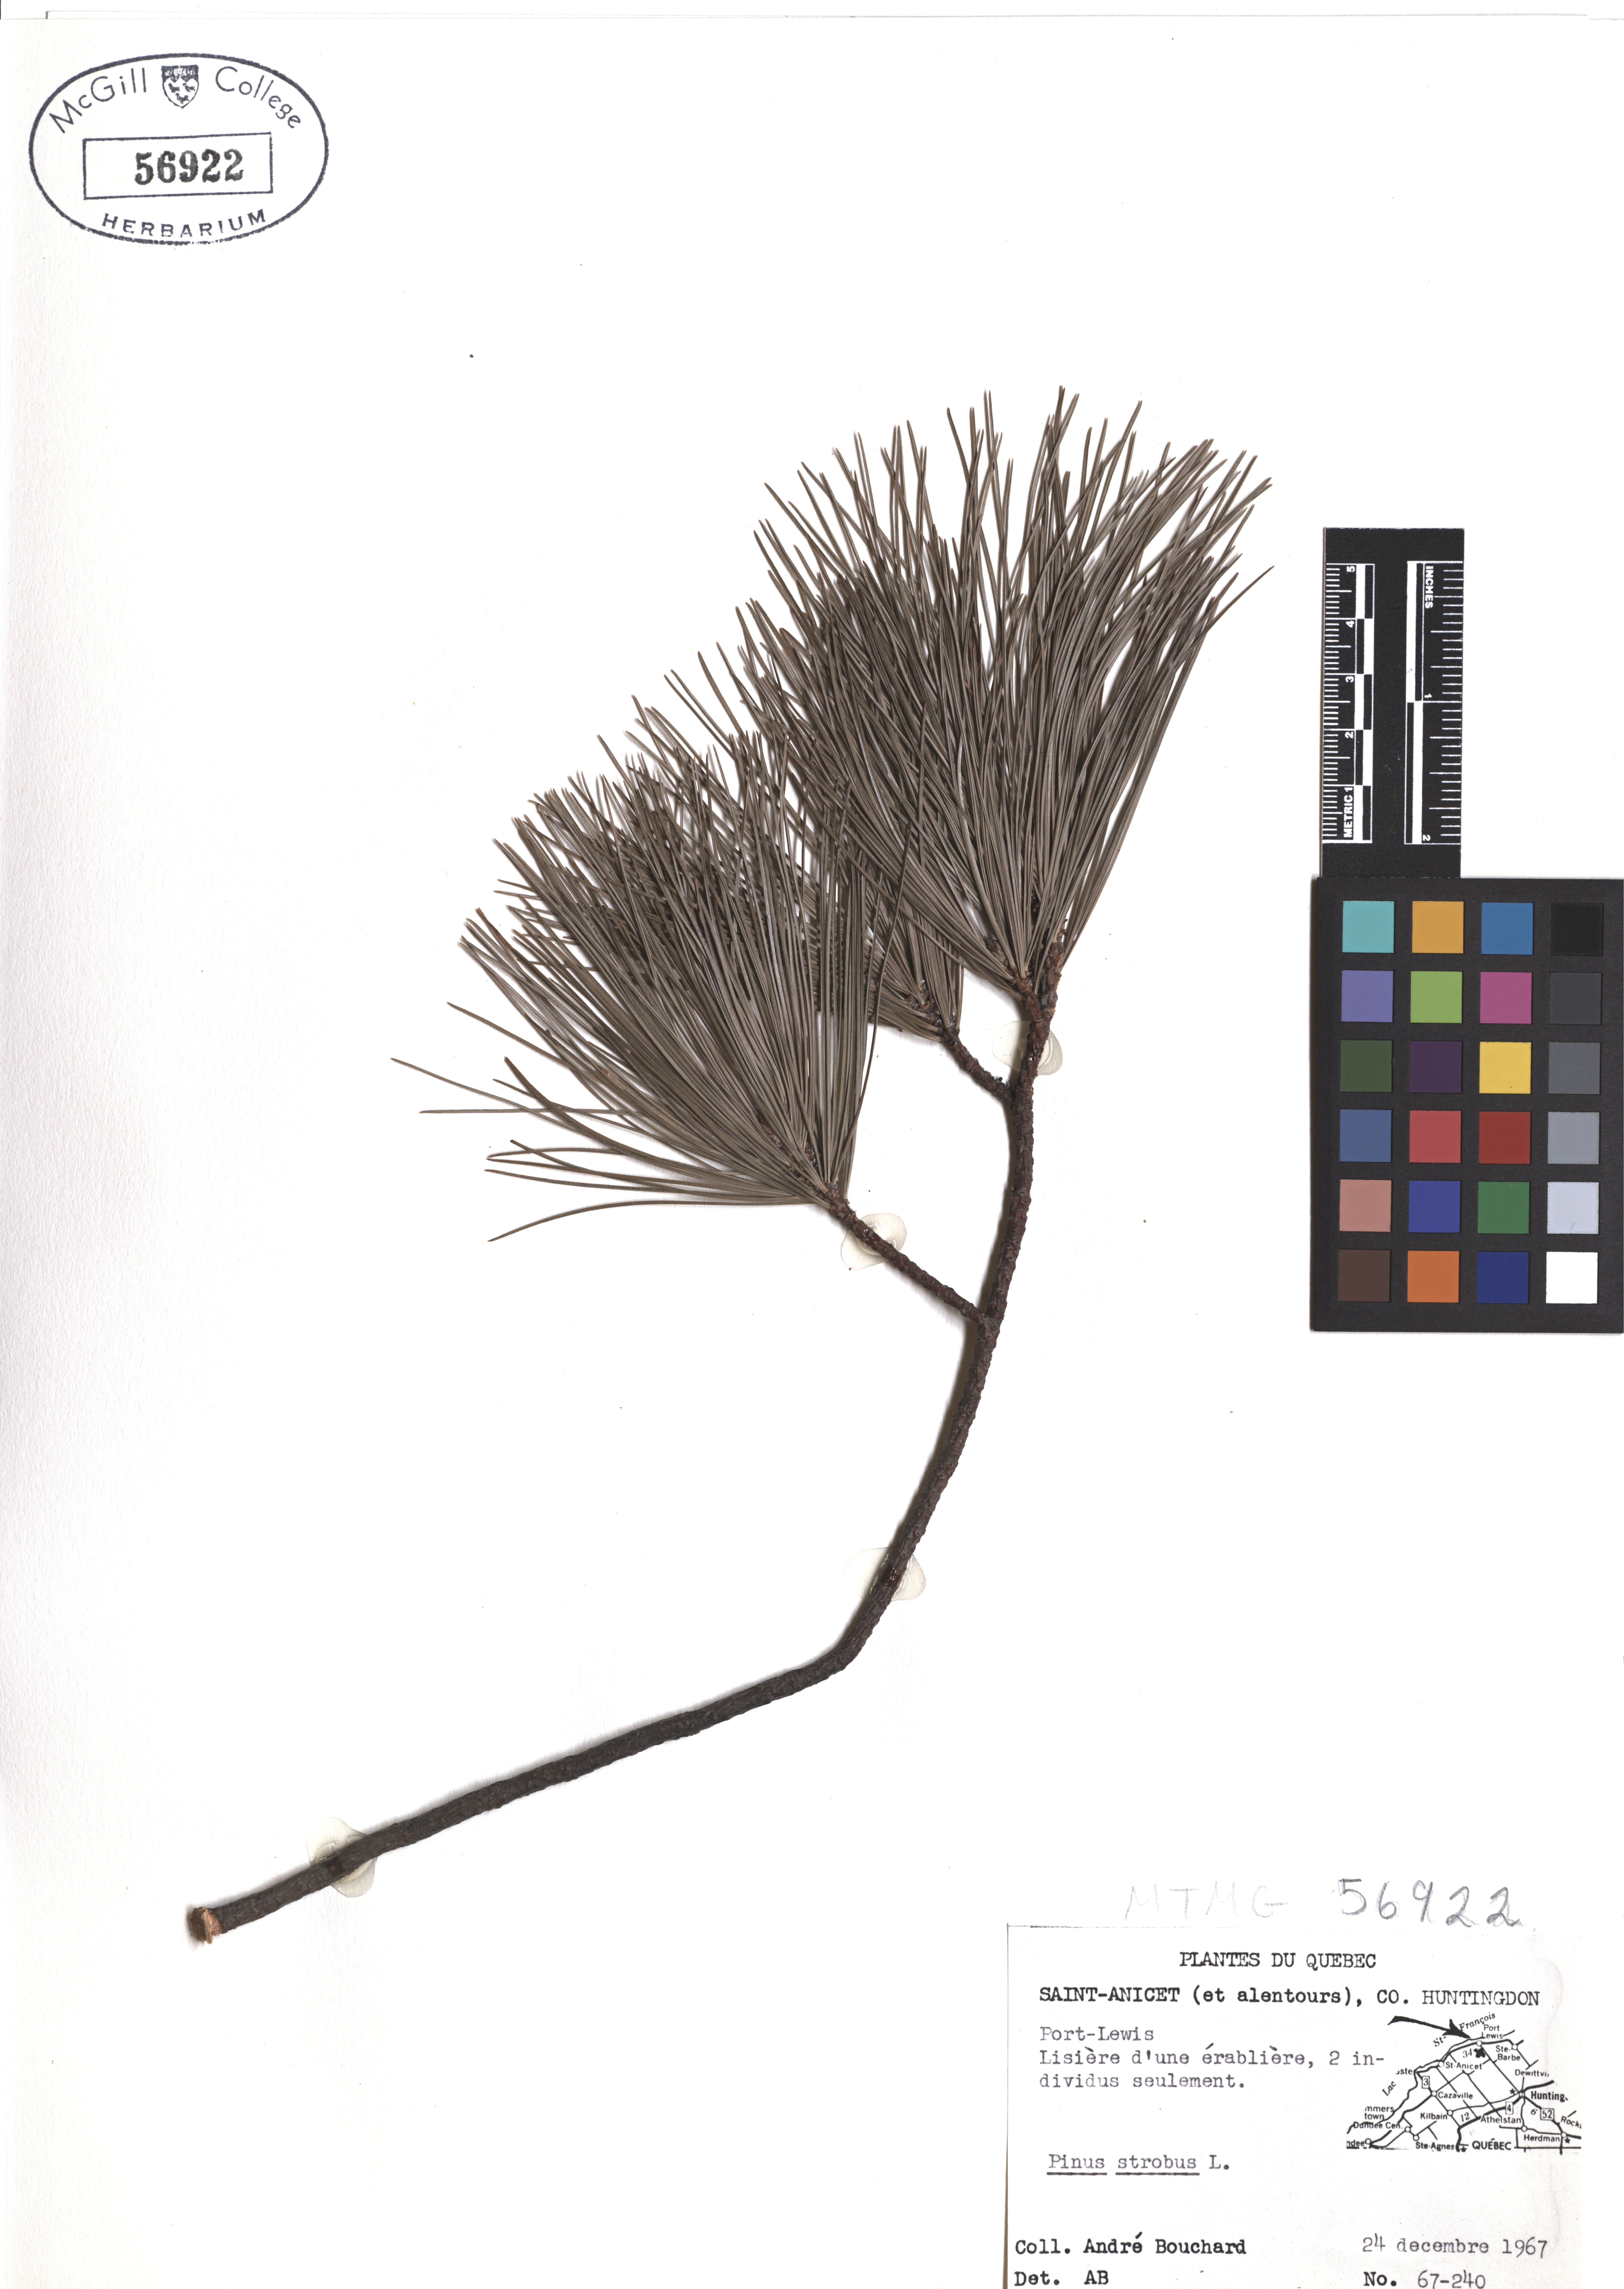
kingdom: Plantae
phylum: Tracheophyta
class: Pinopsida
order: Pinales
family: Pinaceae
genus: Pinus
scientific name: Pinus strobus
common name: Weymouth pine
